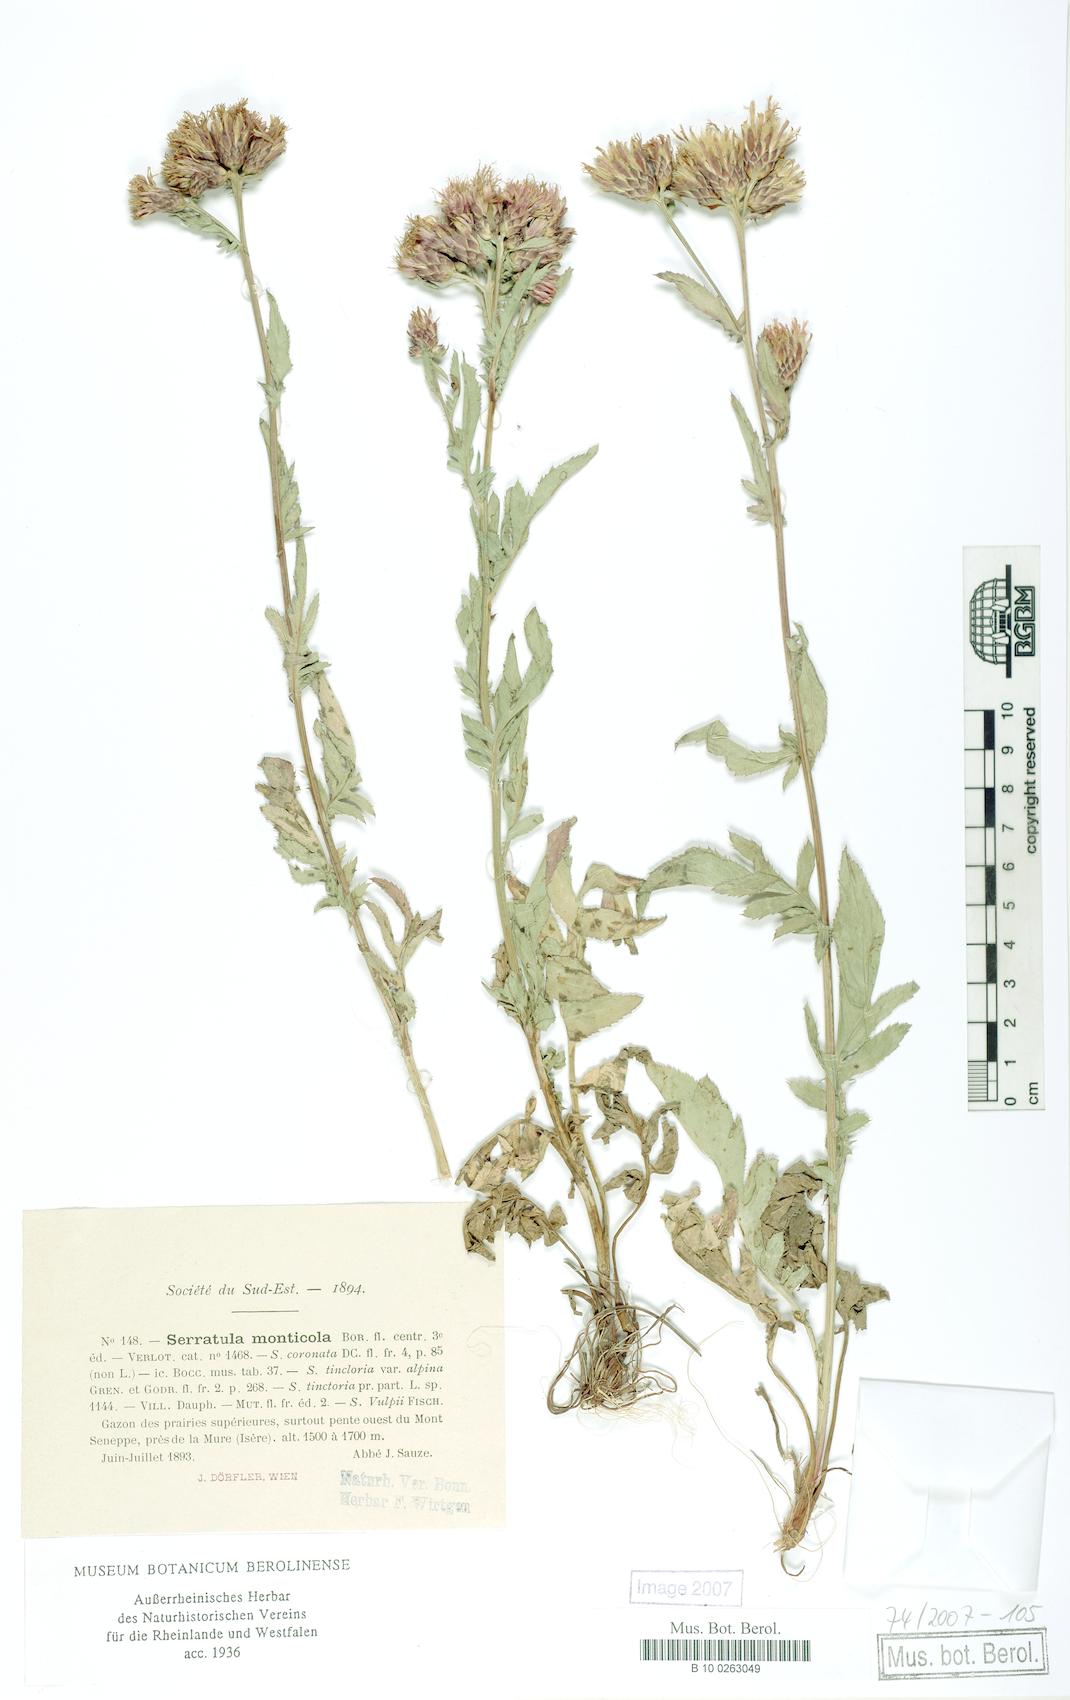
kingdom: Plantae
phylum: Tracheophyta
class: Magnoliopsida
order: Asterales
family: Asteraceae
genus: Serratula
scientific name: Serratula tinctoria
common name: Saw-wort
